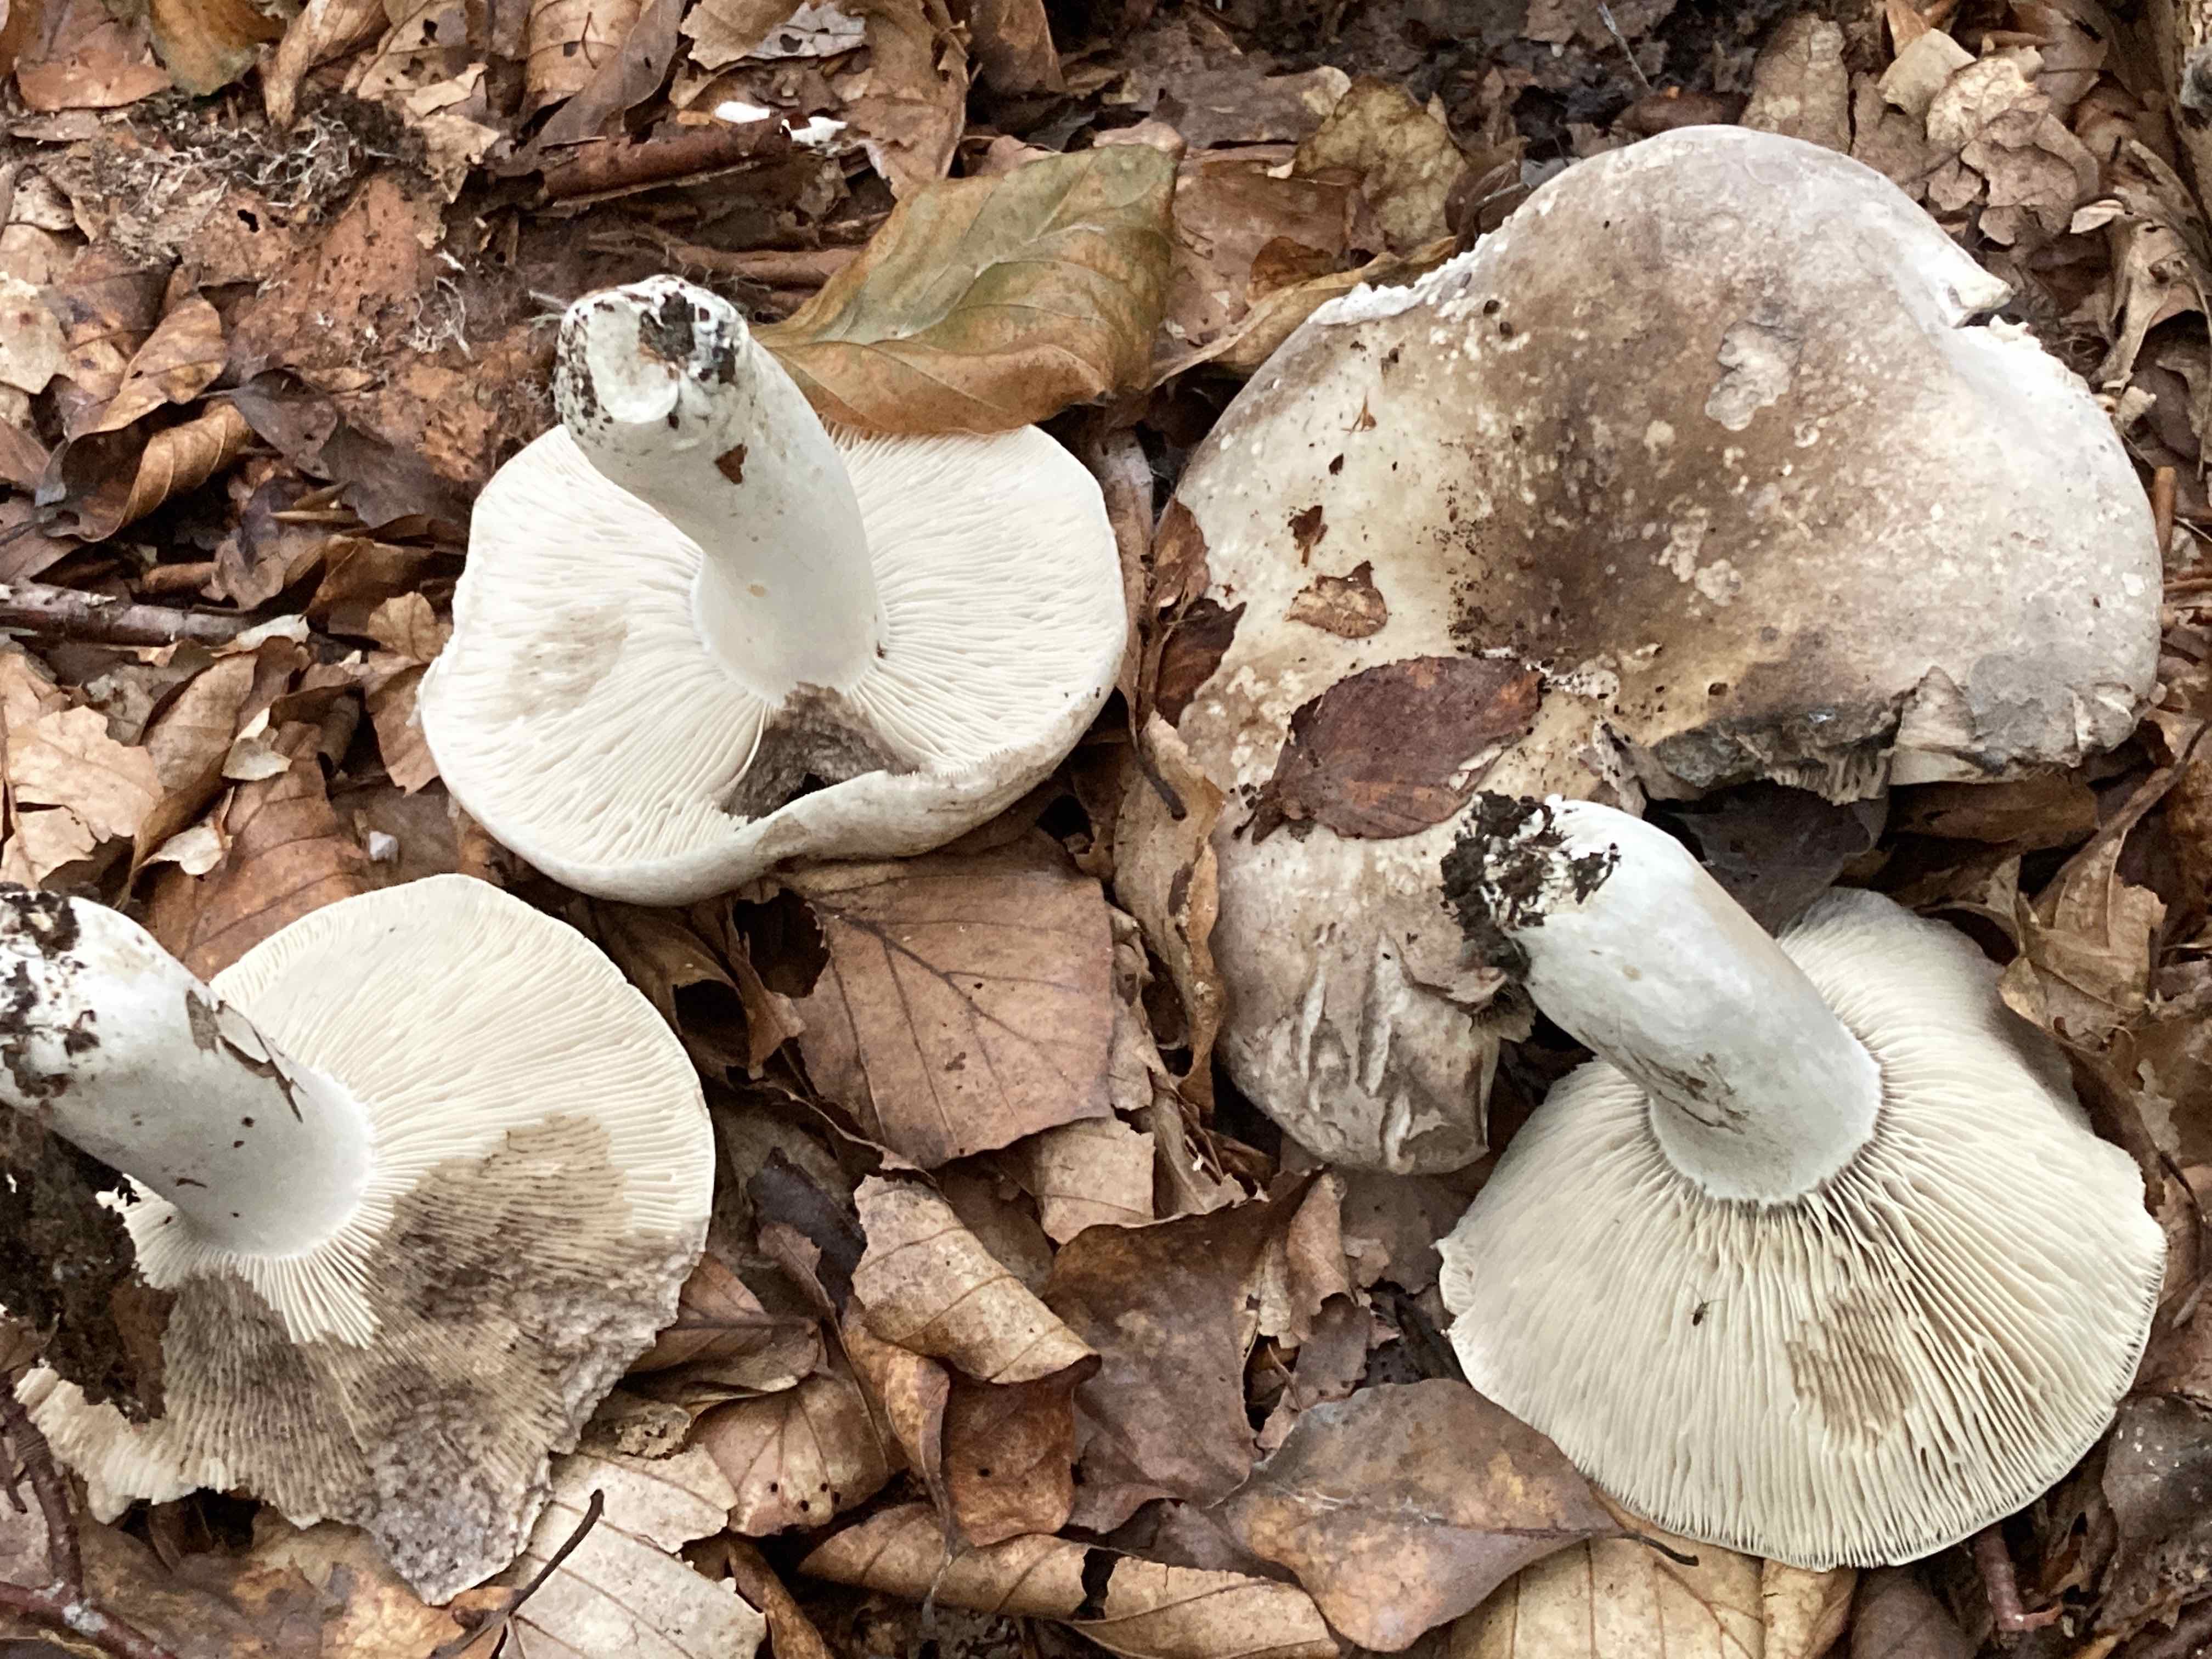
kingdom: Fungi
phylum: Basidiomycota
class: Agaricomycetes
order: Russulales
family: Russulaceae
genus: Russula
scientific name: Russula densifolia
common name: tætbladet skørhat
